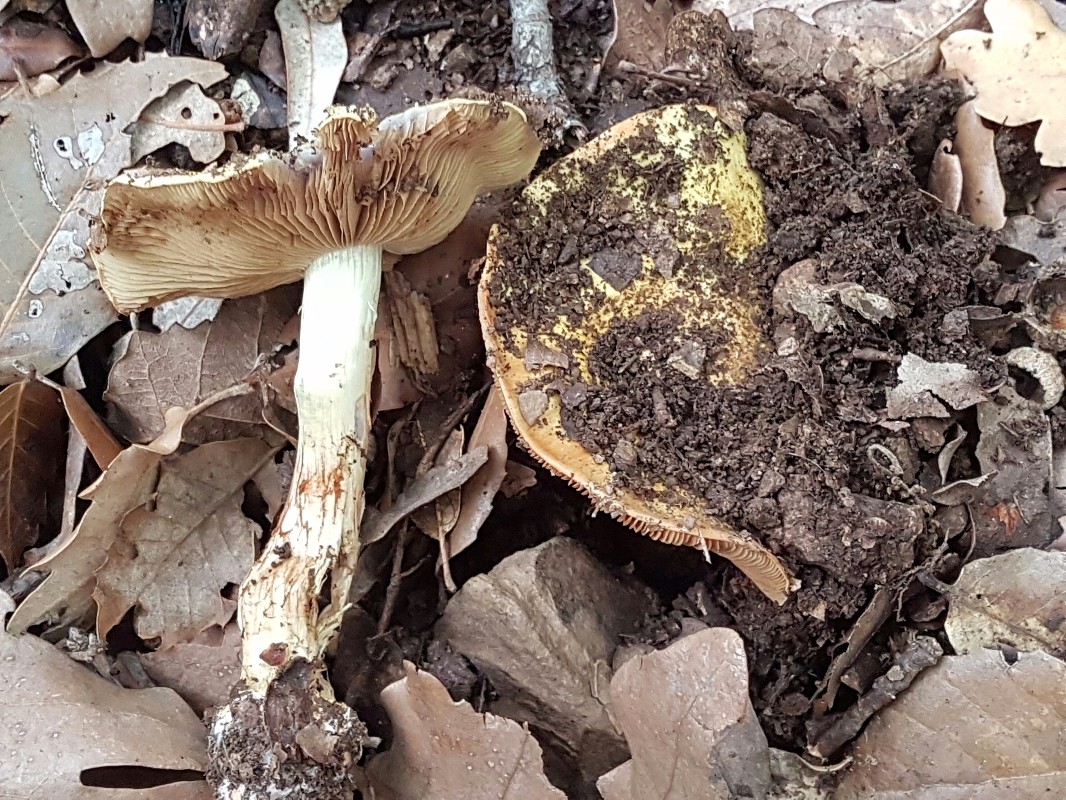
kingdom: Fungi
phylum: Basidiomycota
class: Agaricomycetes
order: Agaricales
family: Cortinariaceae
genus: Cortinarius
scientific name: Cortinarius bergeronii
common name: prægtig slørhat
